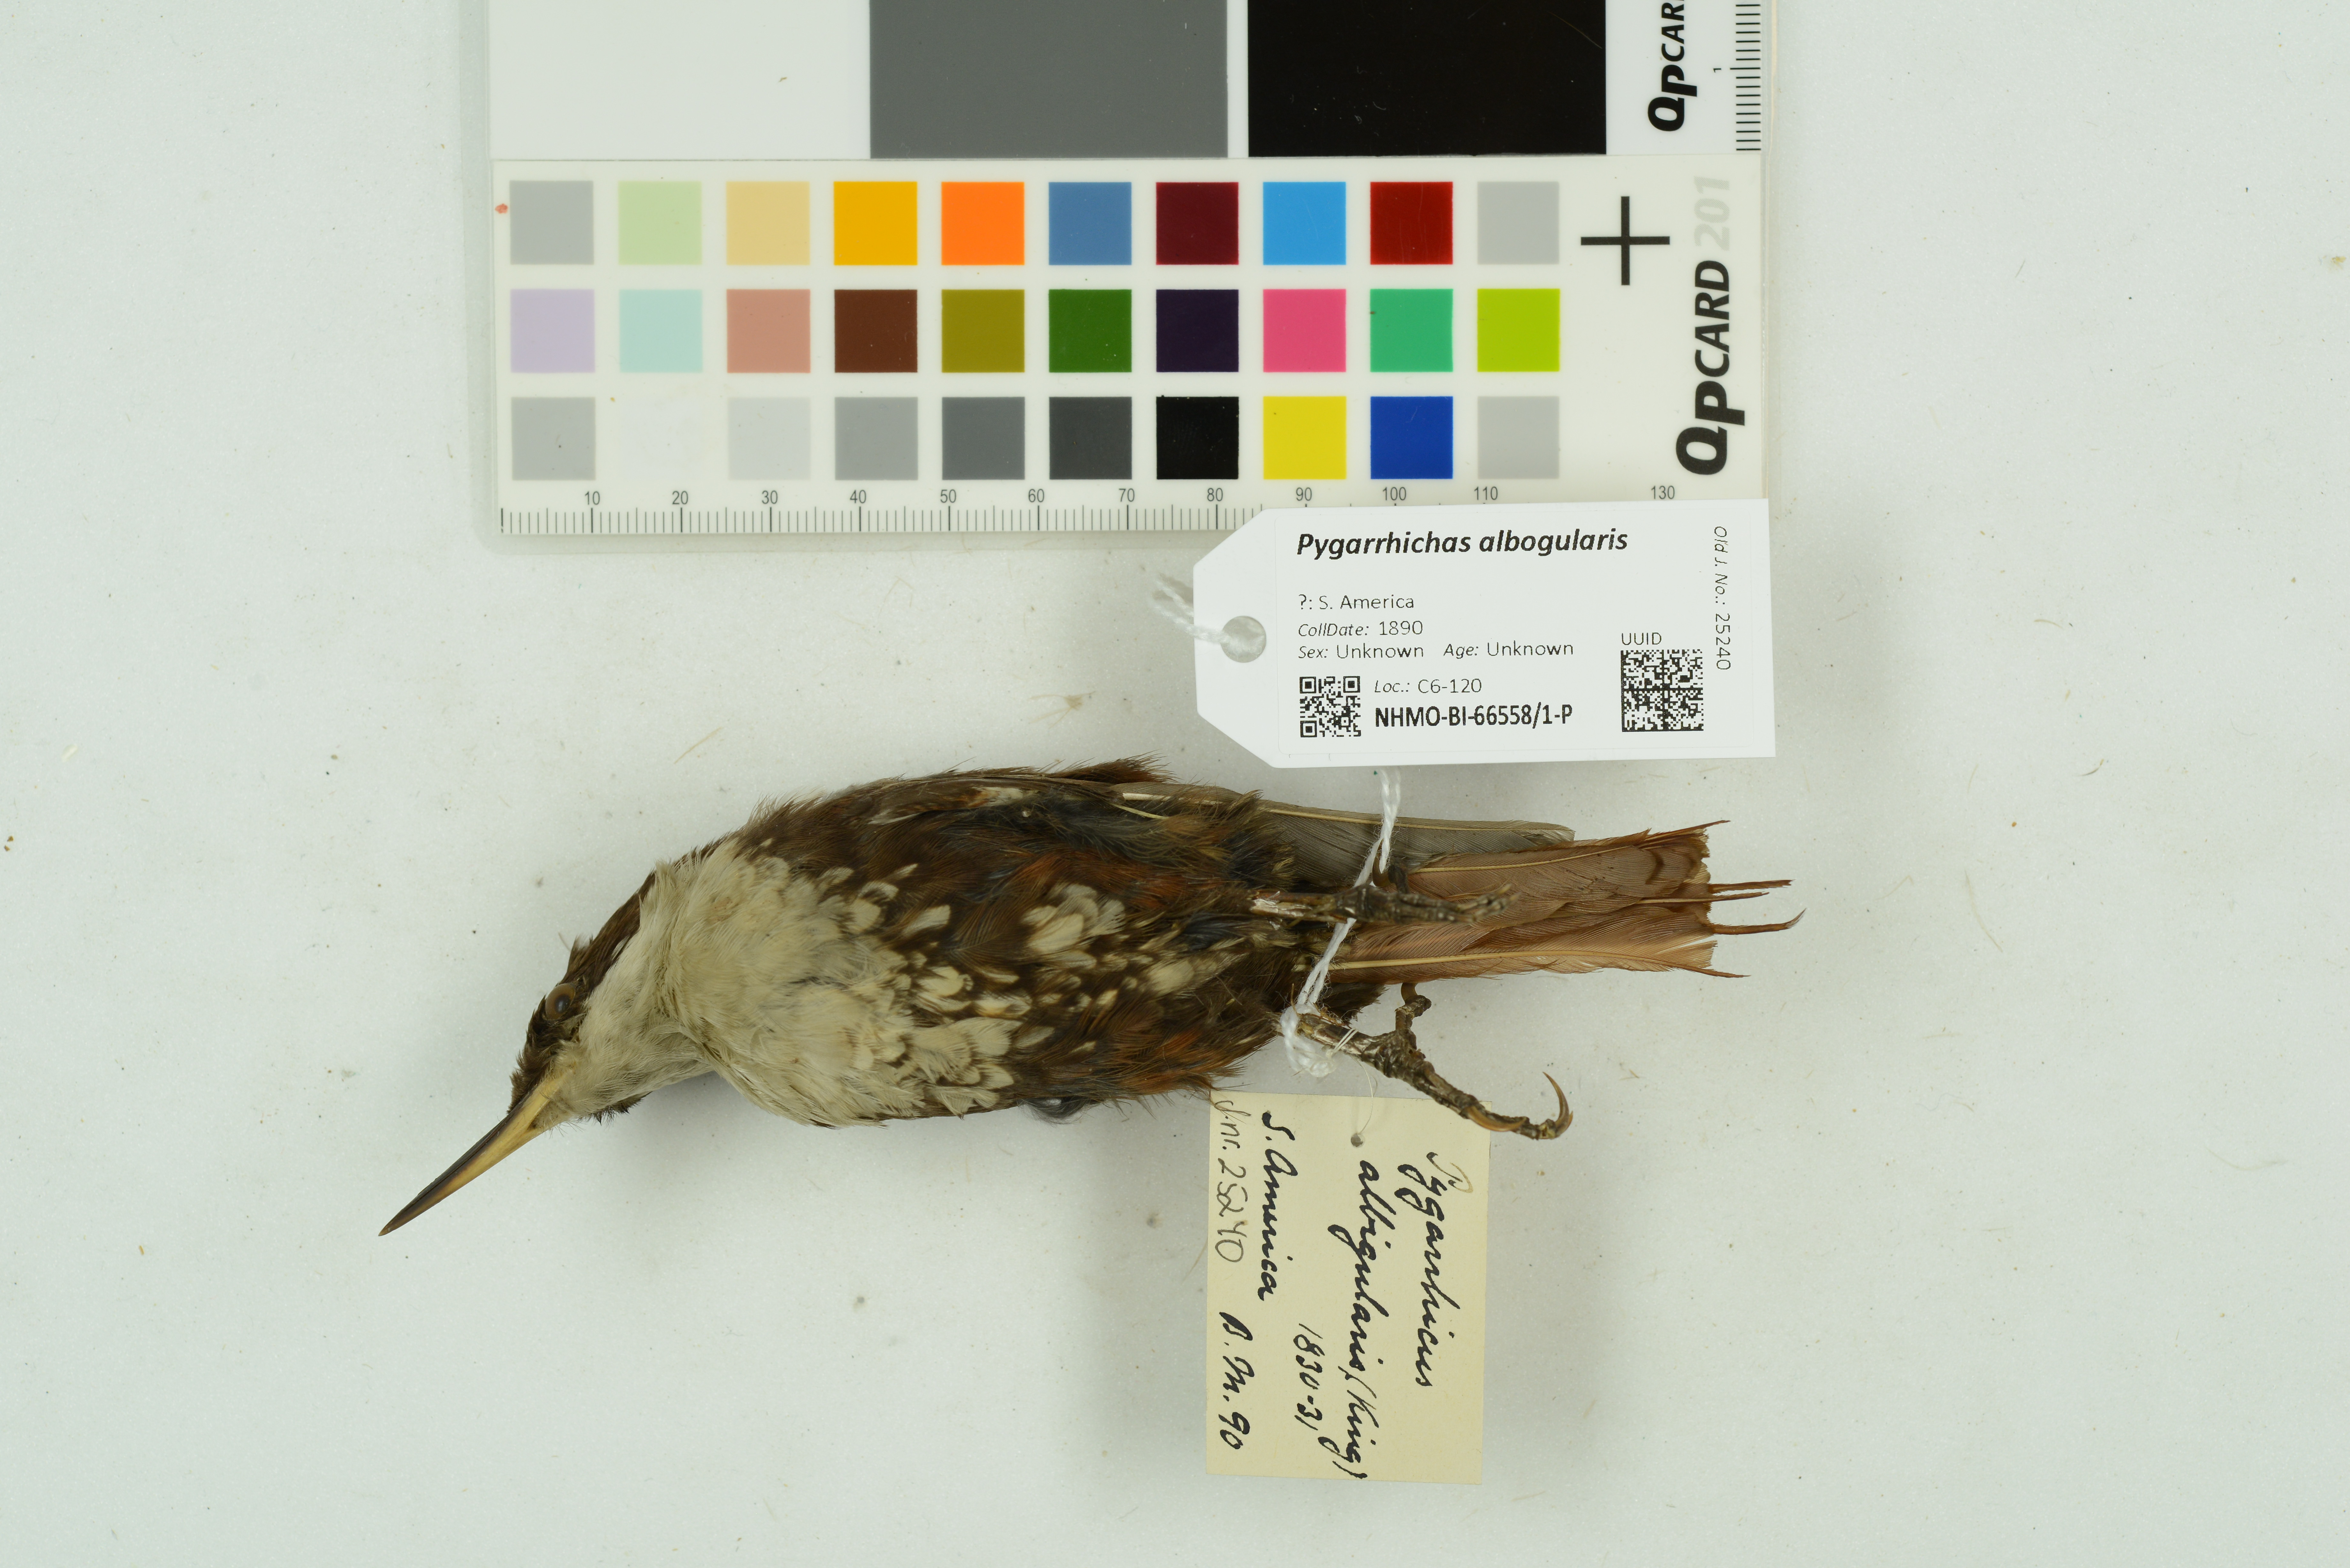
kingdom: Animalia
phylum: Chordata
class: Aves
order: Passeriformes
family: Furnariidae
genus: Pygarrhichas
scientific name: Pygarrhichas albogularis
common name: White-throated treerunner
